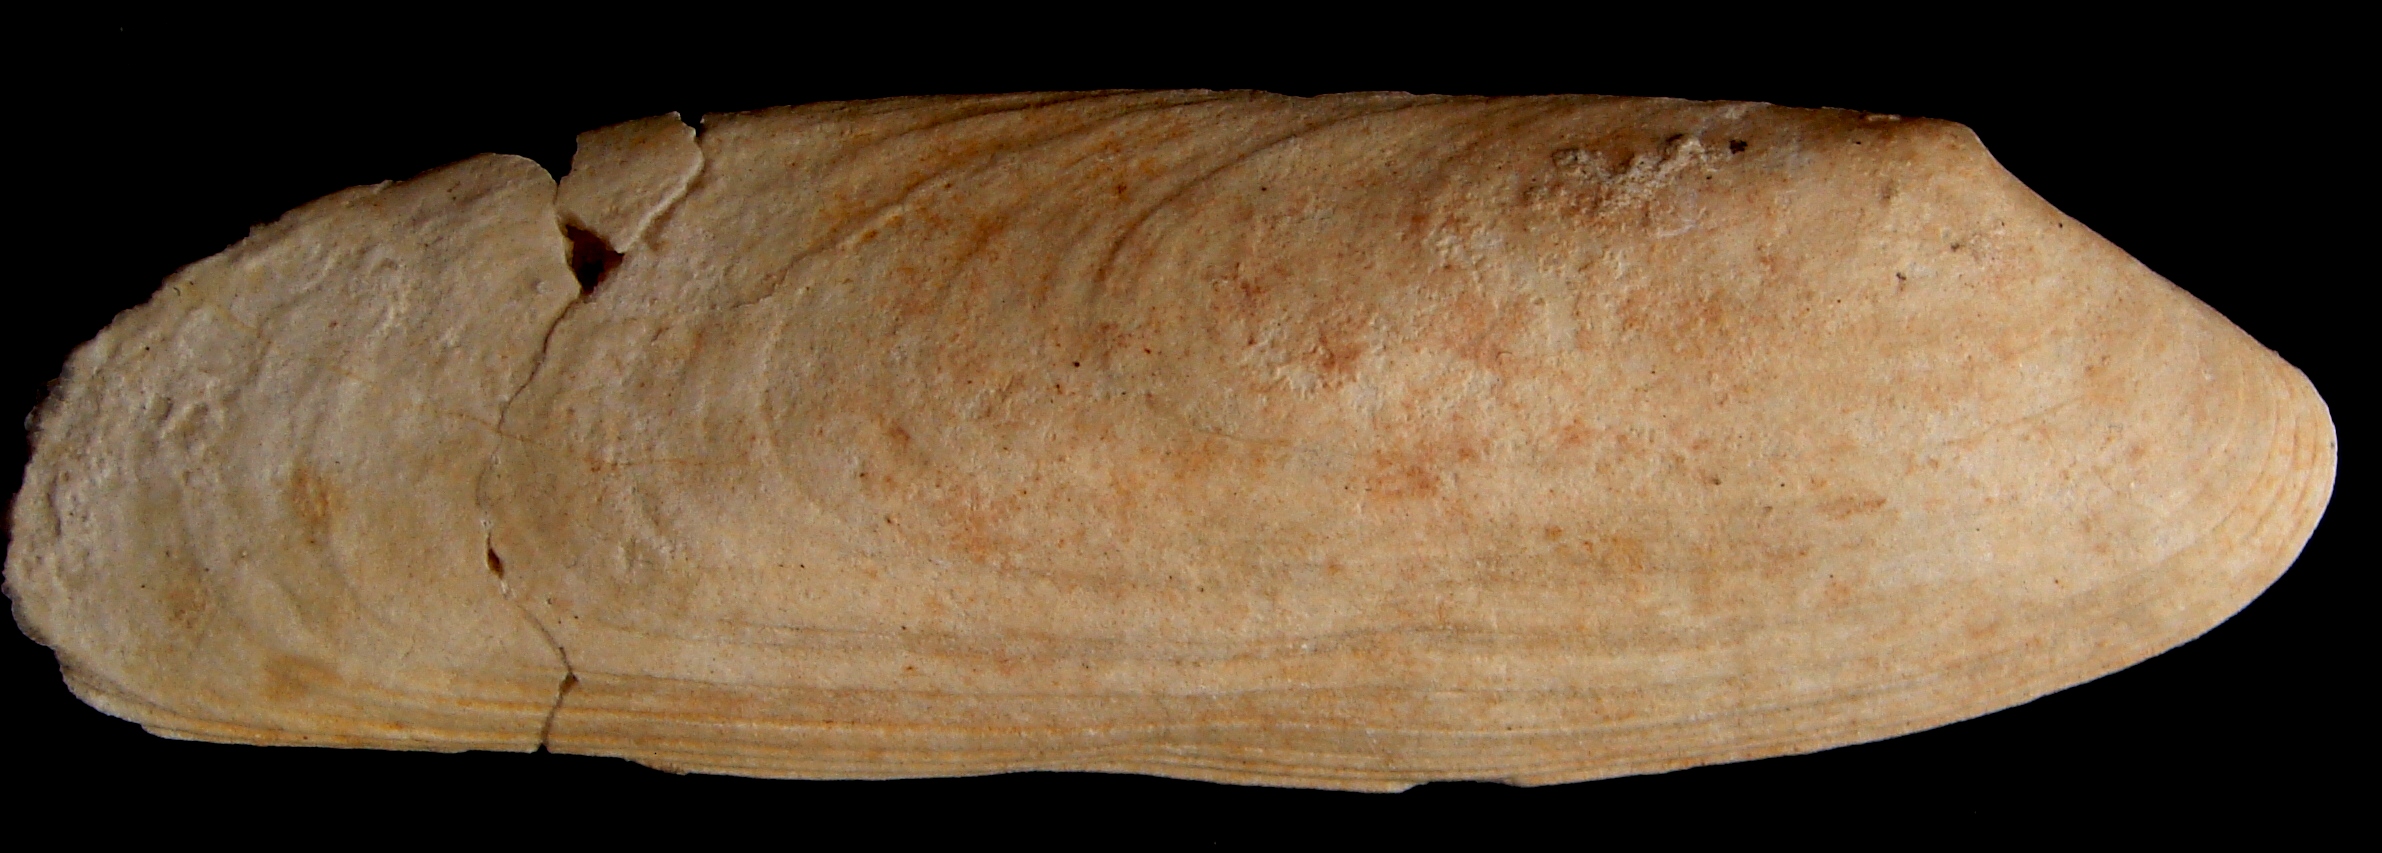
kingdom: Animalia
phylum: Mollusca
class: Bivalvia
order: Carditida
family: Cardiniidae
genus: Cardinia
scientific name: Cardinia
